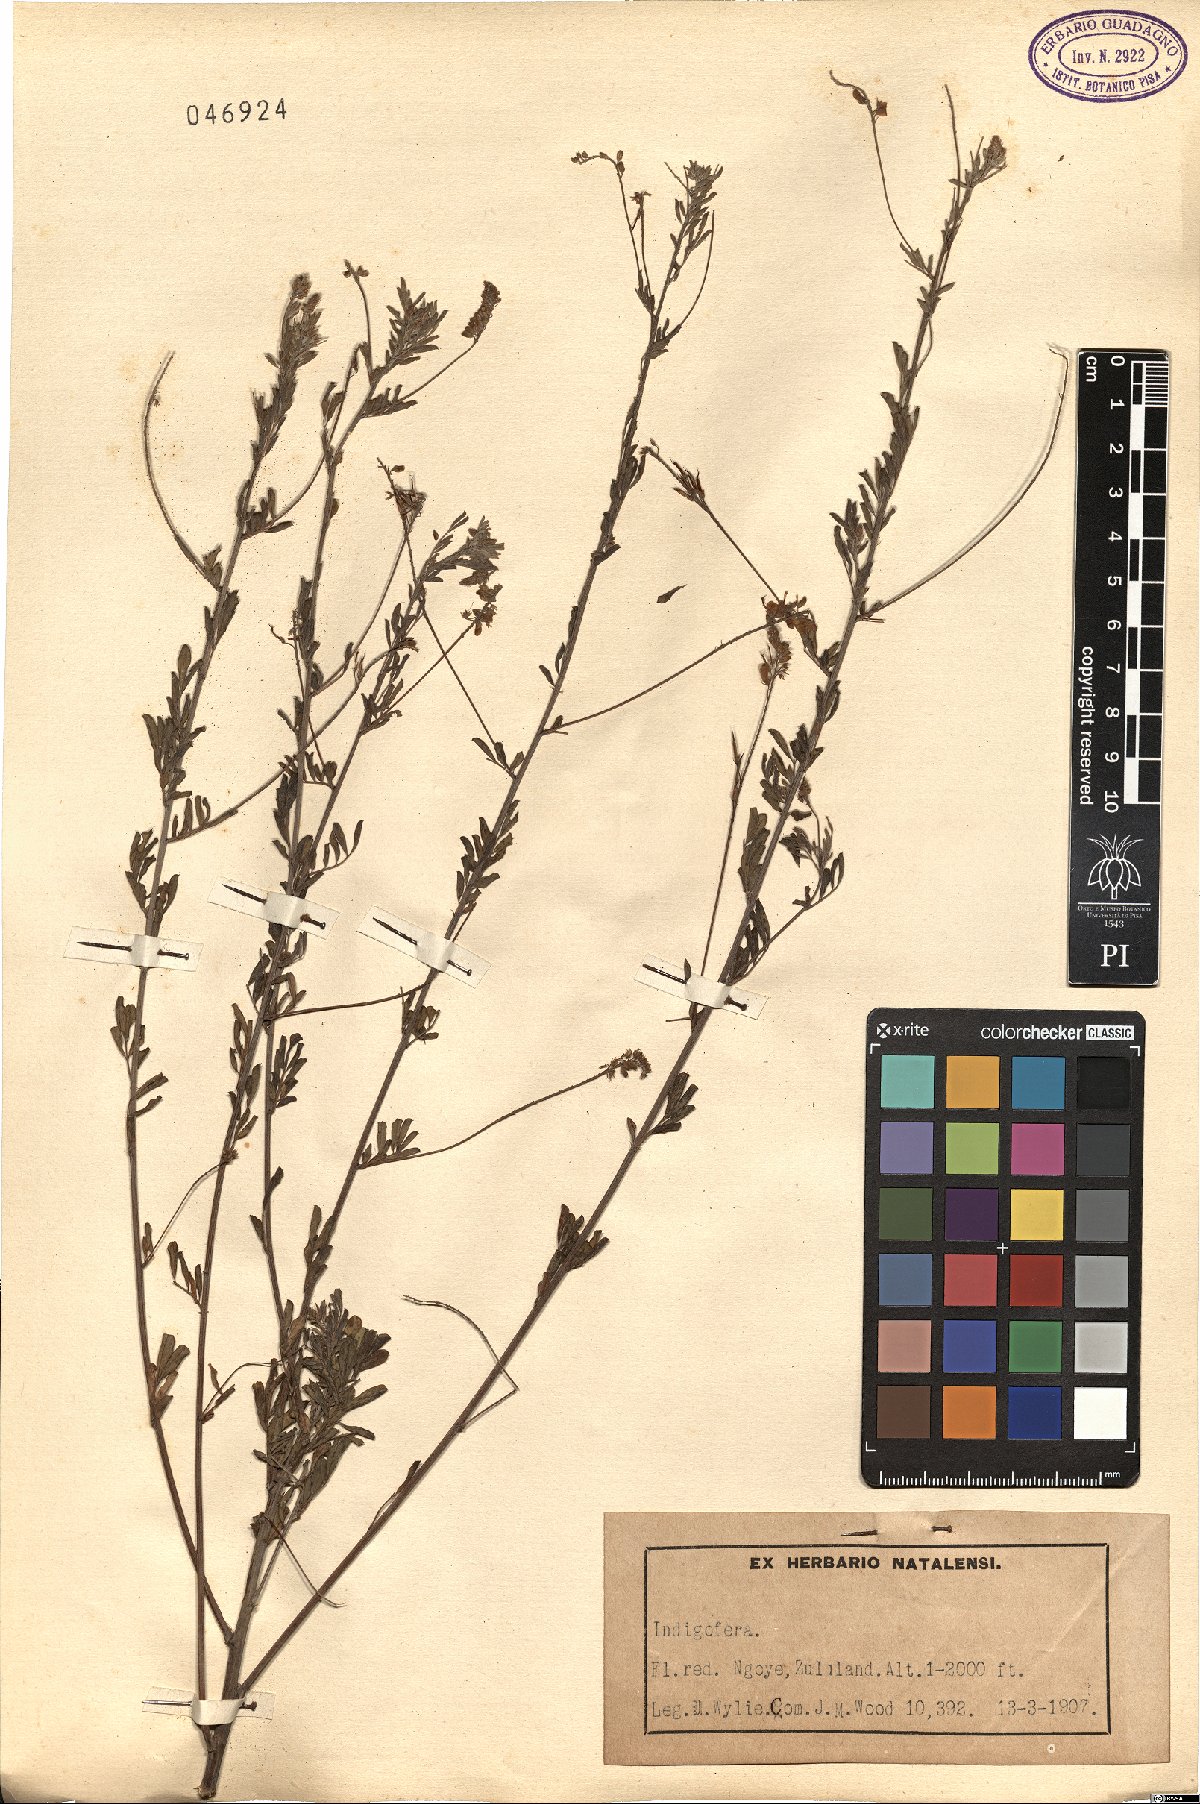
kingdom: Plantae
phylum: Tracheophyta
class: Magnoliopsida
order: Fabales
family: Fabaceae
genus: Indigofera
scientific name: Indigofera
